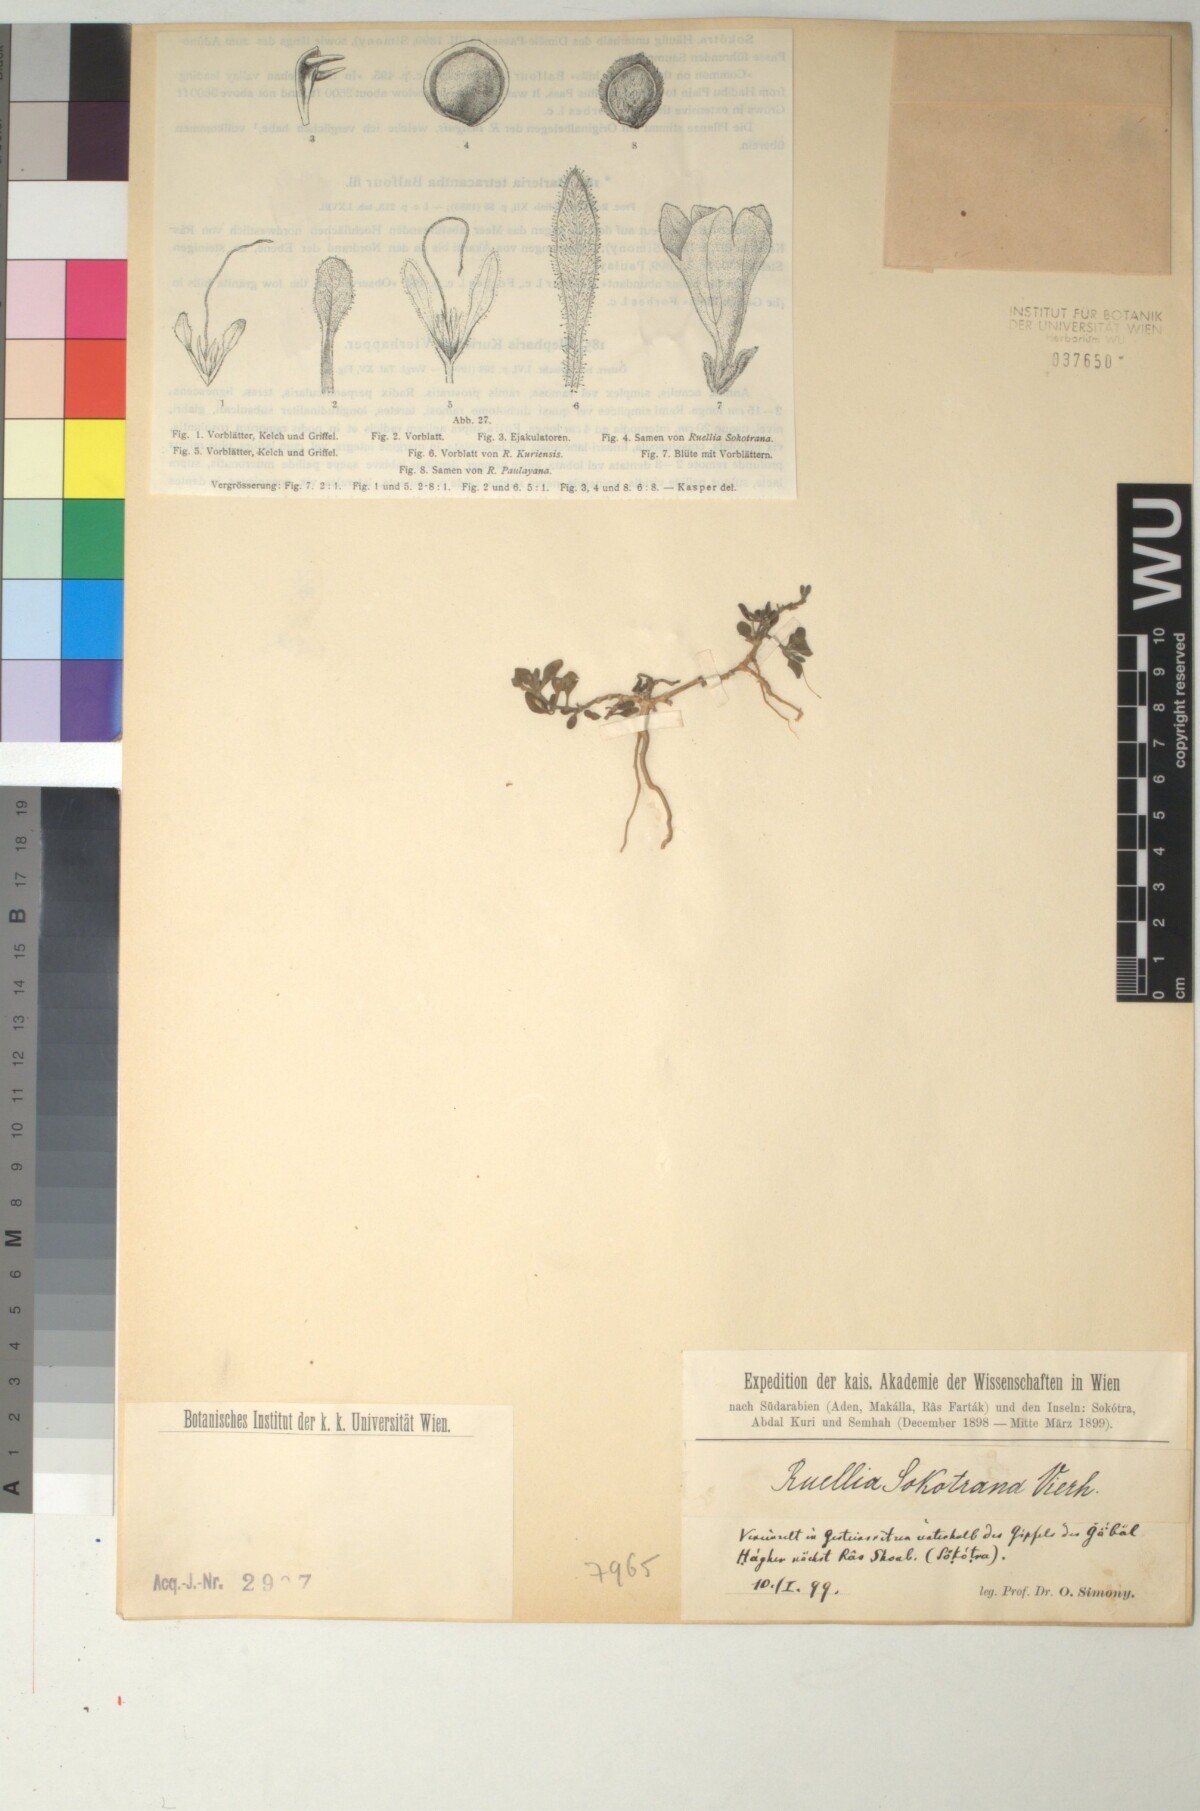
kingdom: Plantae
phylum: Tracheophyta
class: Magnoliopsida
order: Lamiales
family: Acanthaceae
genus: Ruellia
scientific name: Ruellia patula
